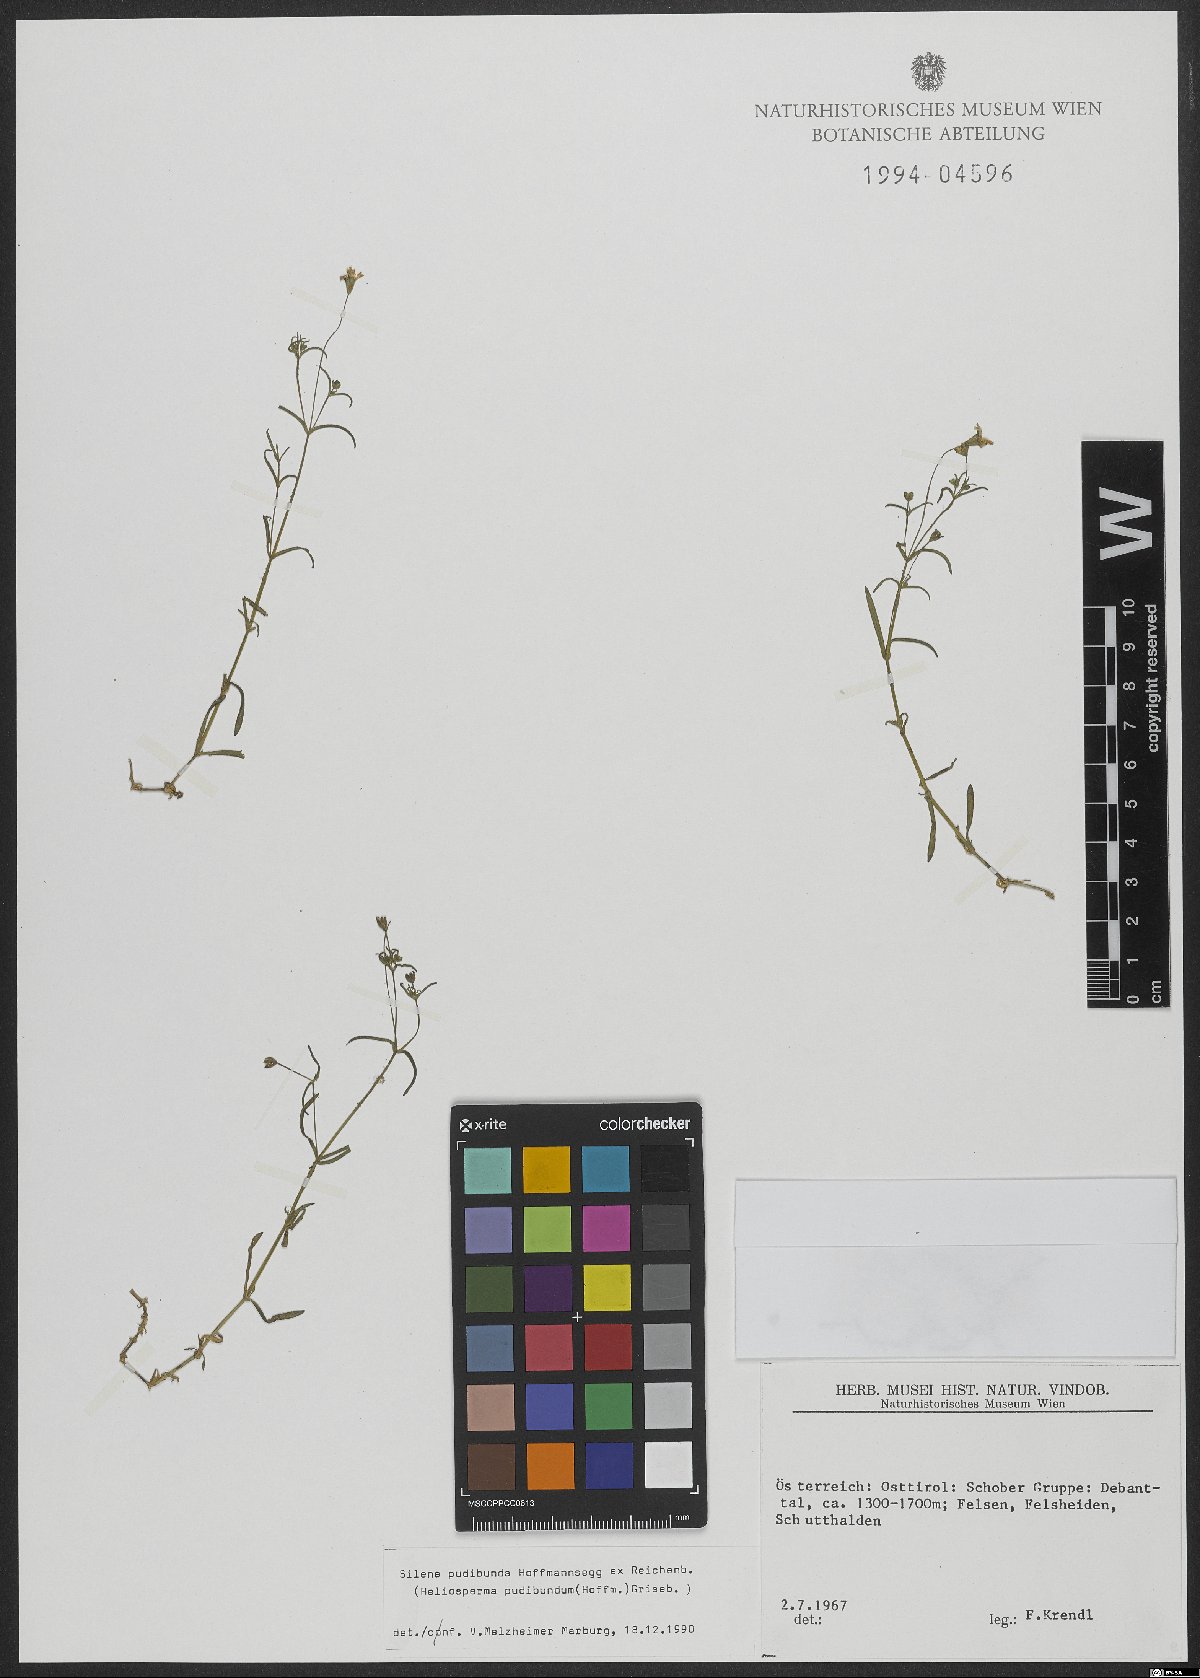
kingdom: Plantae
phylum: Tracheophyta
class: Magnoliopsida
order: Caryophyllales
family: Caryophyllaceae
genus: Heliosperma
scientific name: Heliosperma pudibundum
